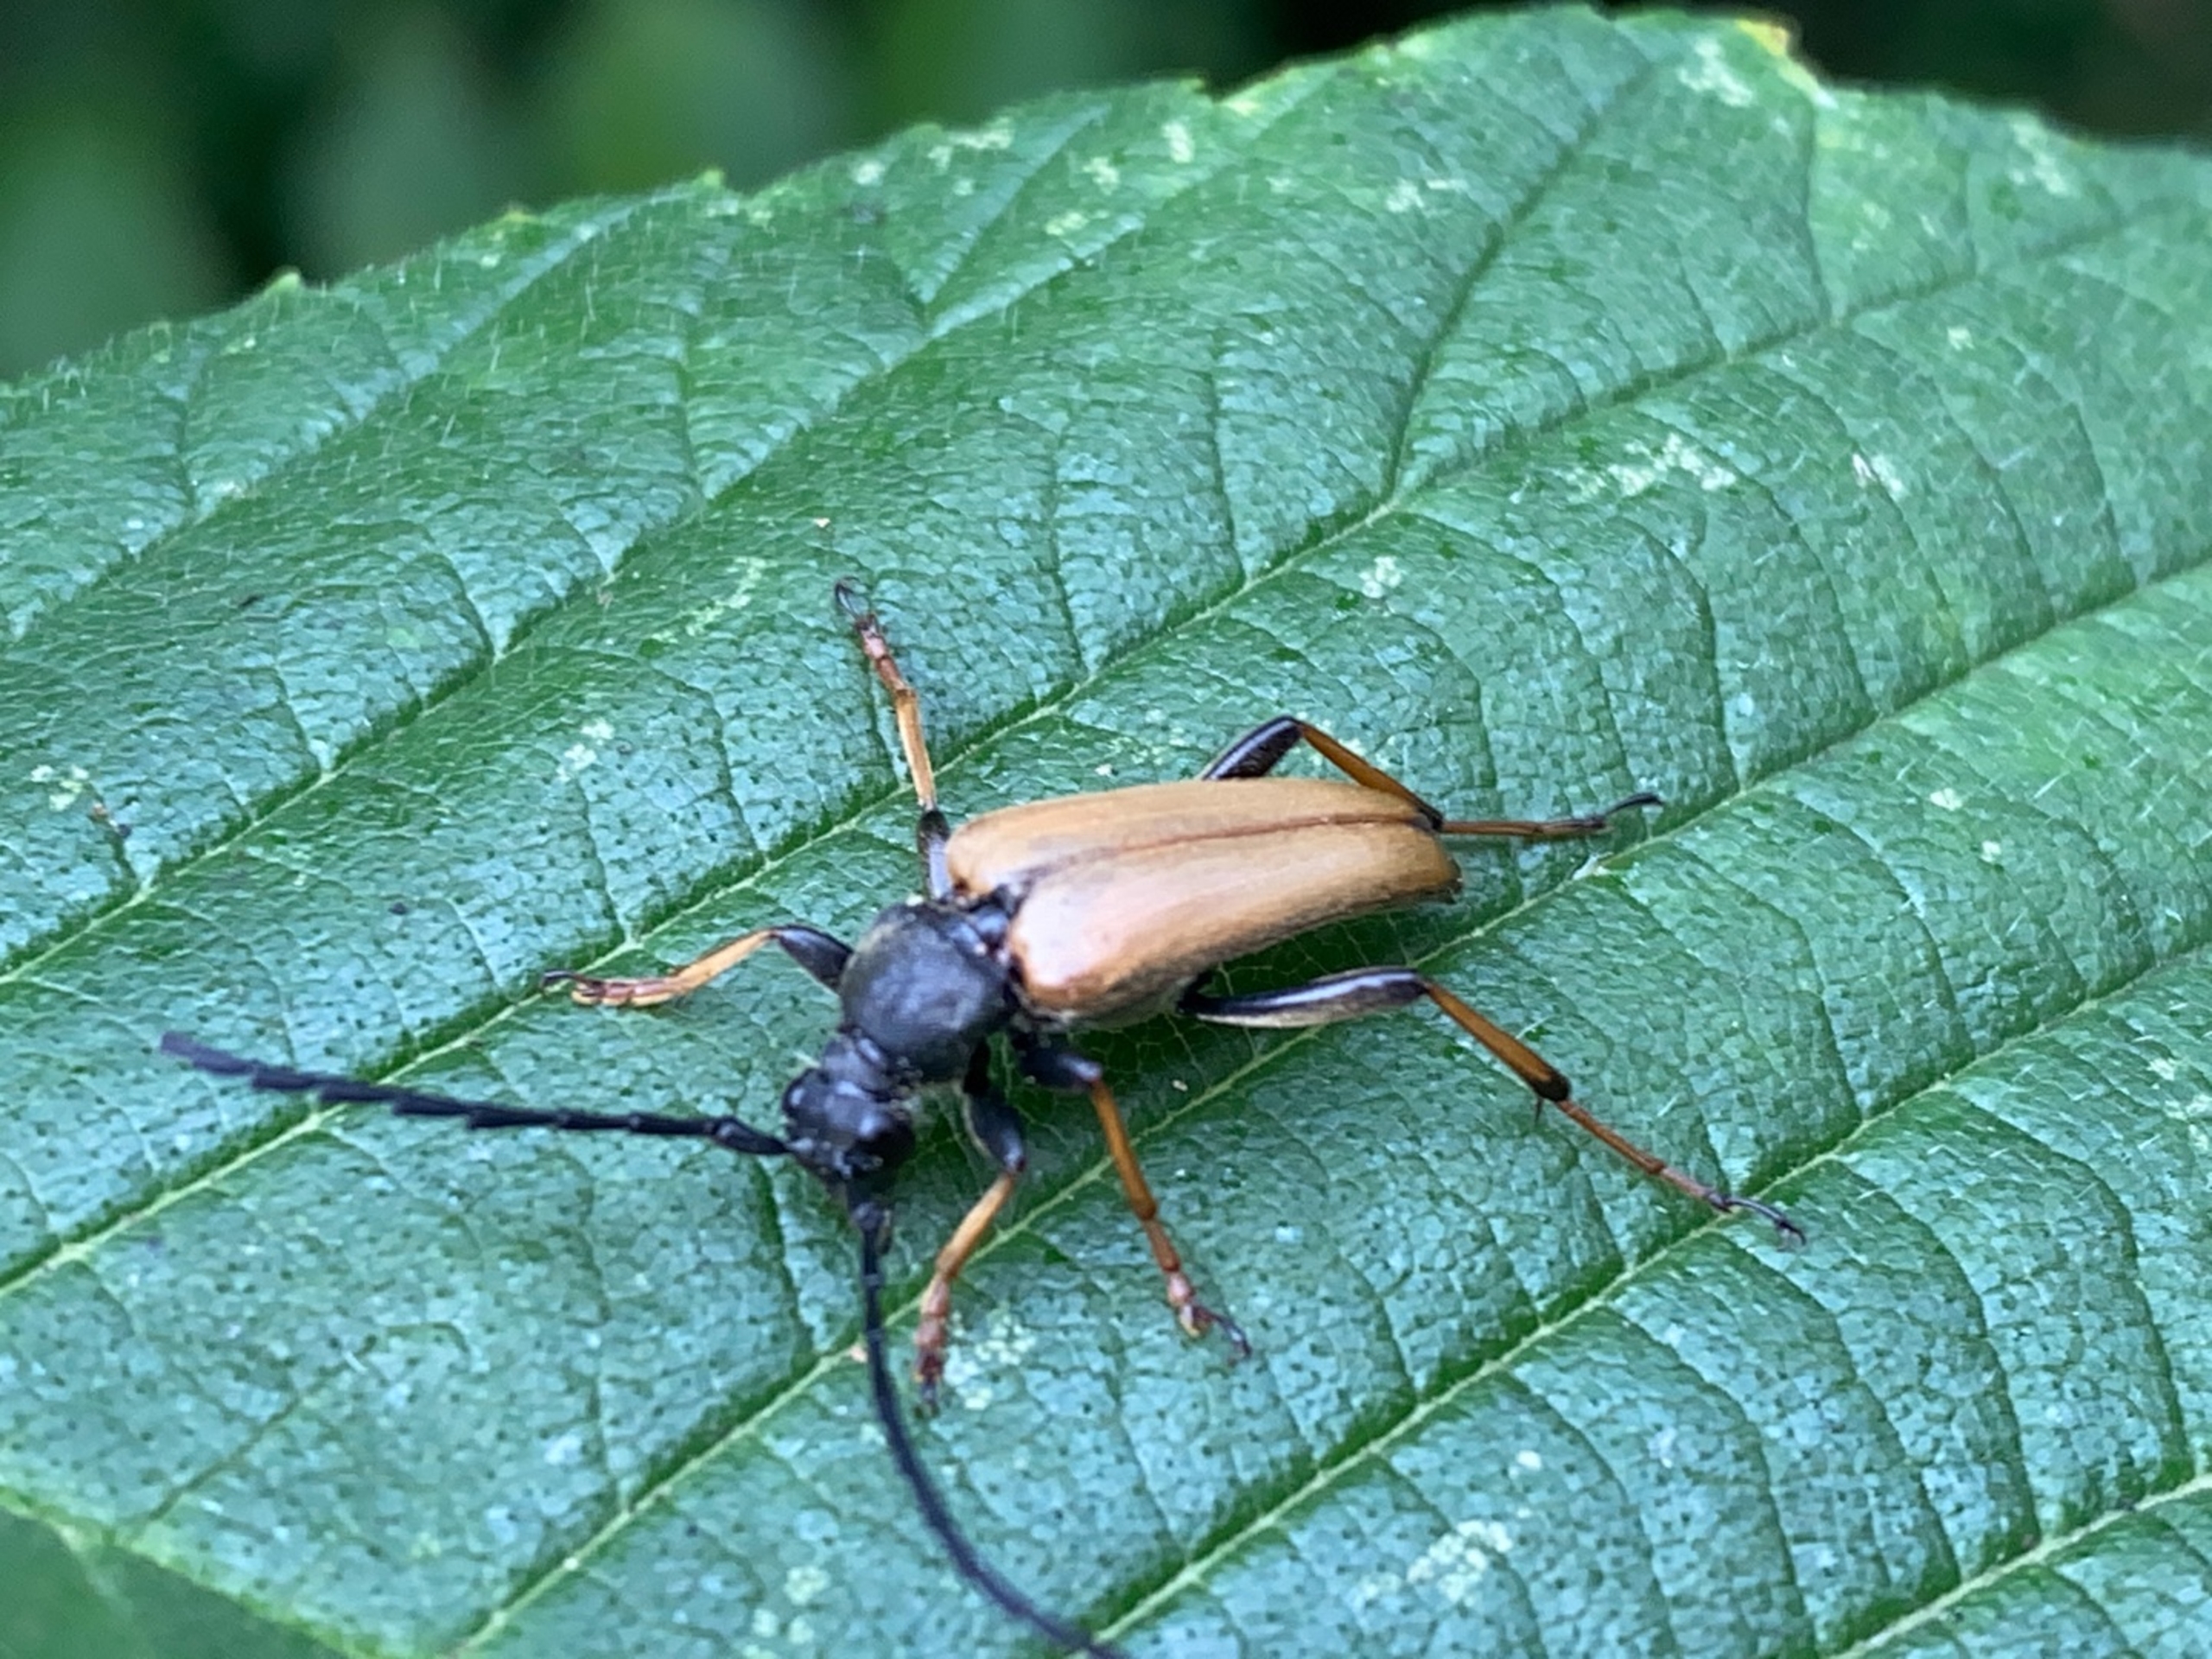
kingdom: Animalia
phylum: Arthropoda
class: Insecta
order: Coleoptera
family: Cerambycidae
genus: Stictoleptura
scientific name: Stictoleptura rubra
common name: Rød blomsterbuk
